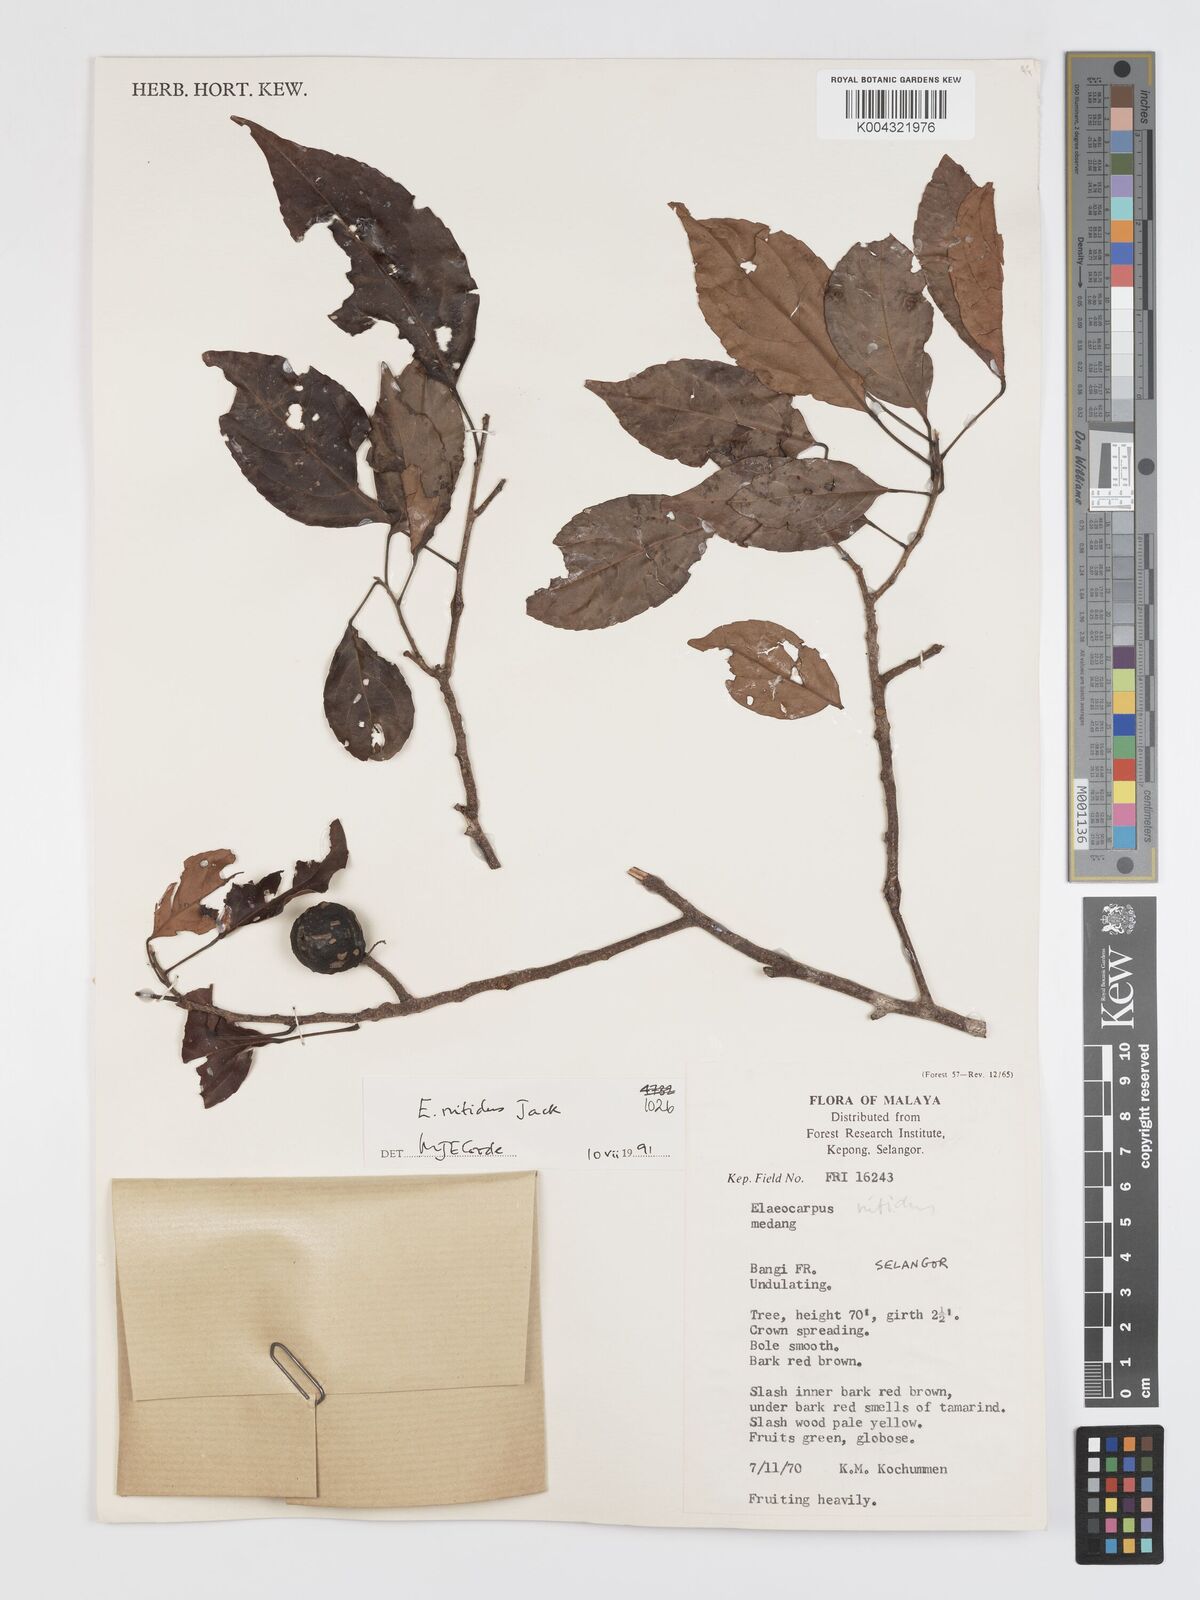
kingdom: Plantae
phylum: Tracheophyta
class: Magnoliopsida
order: Oxalidales
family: Elaeocarpaceae
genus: Elaeocarpus
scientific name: Elaeocarpus nitidus
